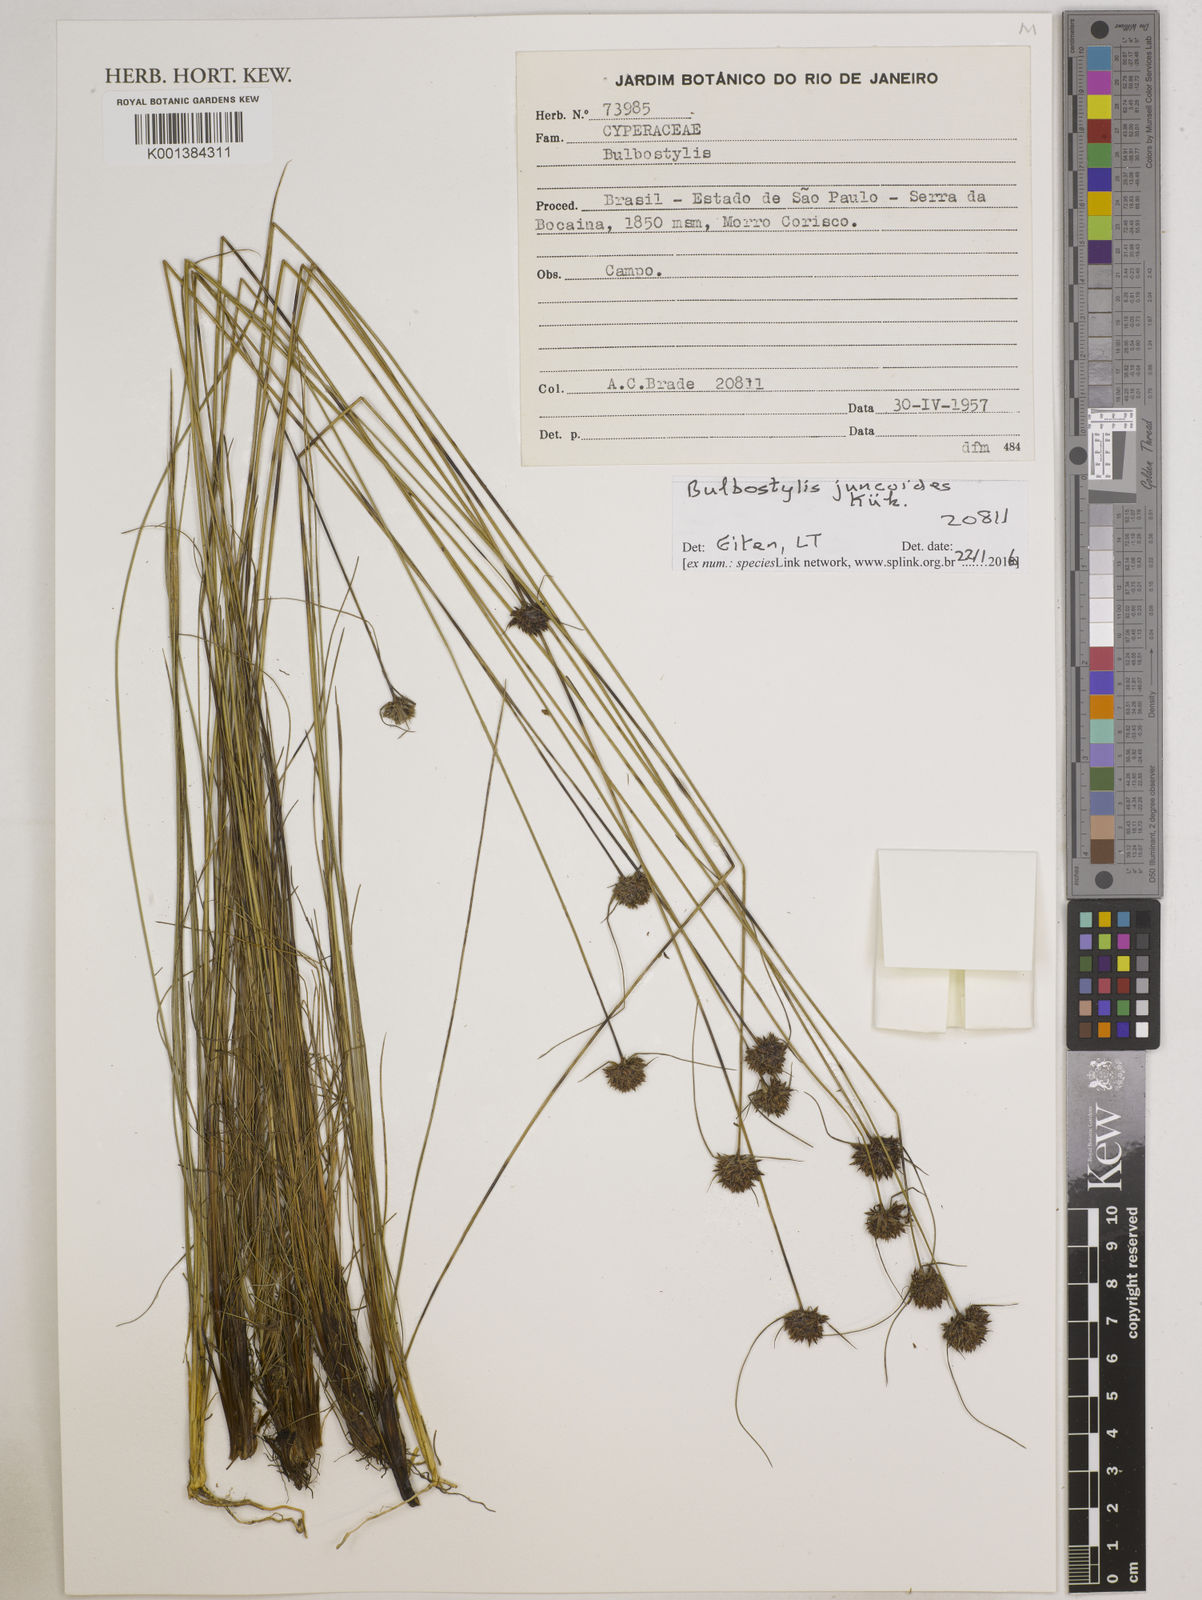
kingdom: Plantae
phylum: Tracheophyta
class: Liliopsida
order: Poales
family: Cyperaceae
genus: Bulbostylis
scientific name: Bulbostylis juncoides
